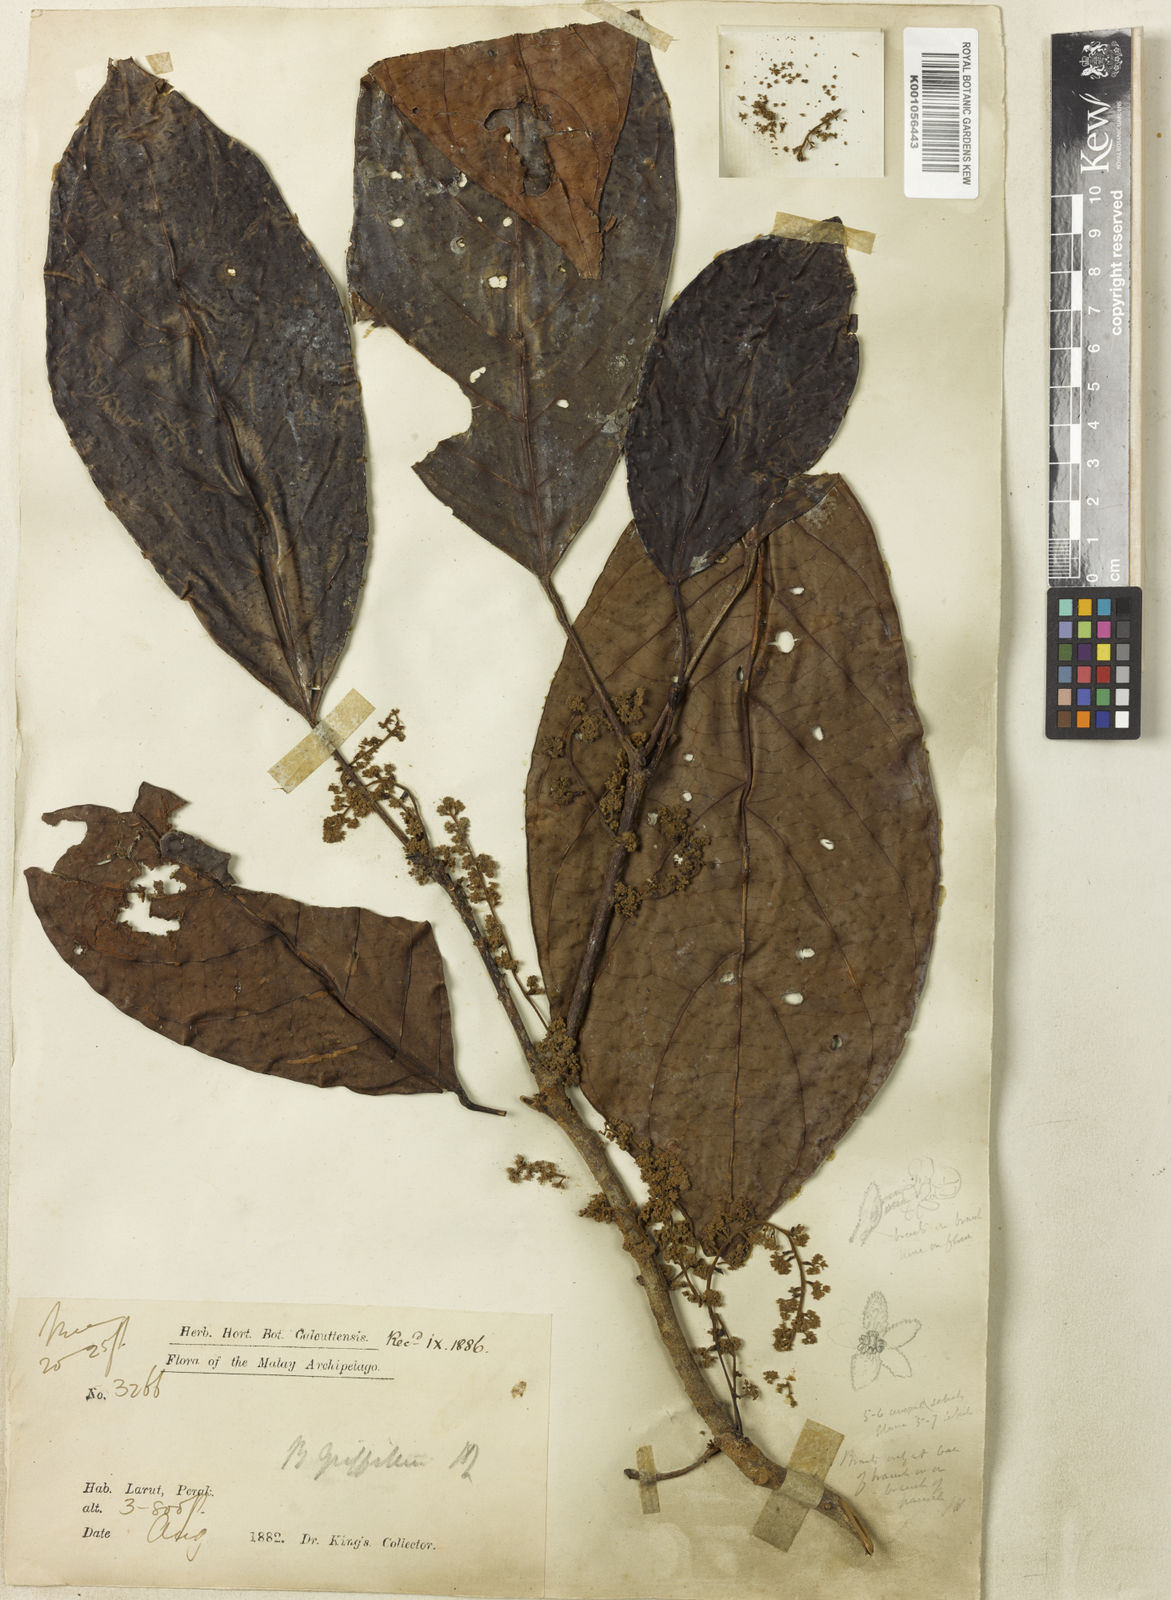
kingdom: Plantae
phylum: Tracheophyta
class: Magnoliopsida
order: Malpighiales
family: Phyllanthaceae
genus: Baccaurea
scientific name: Baccaurea
